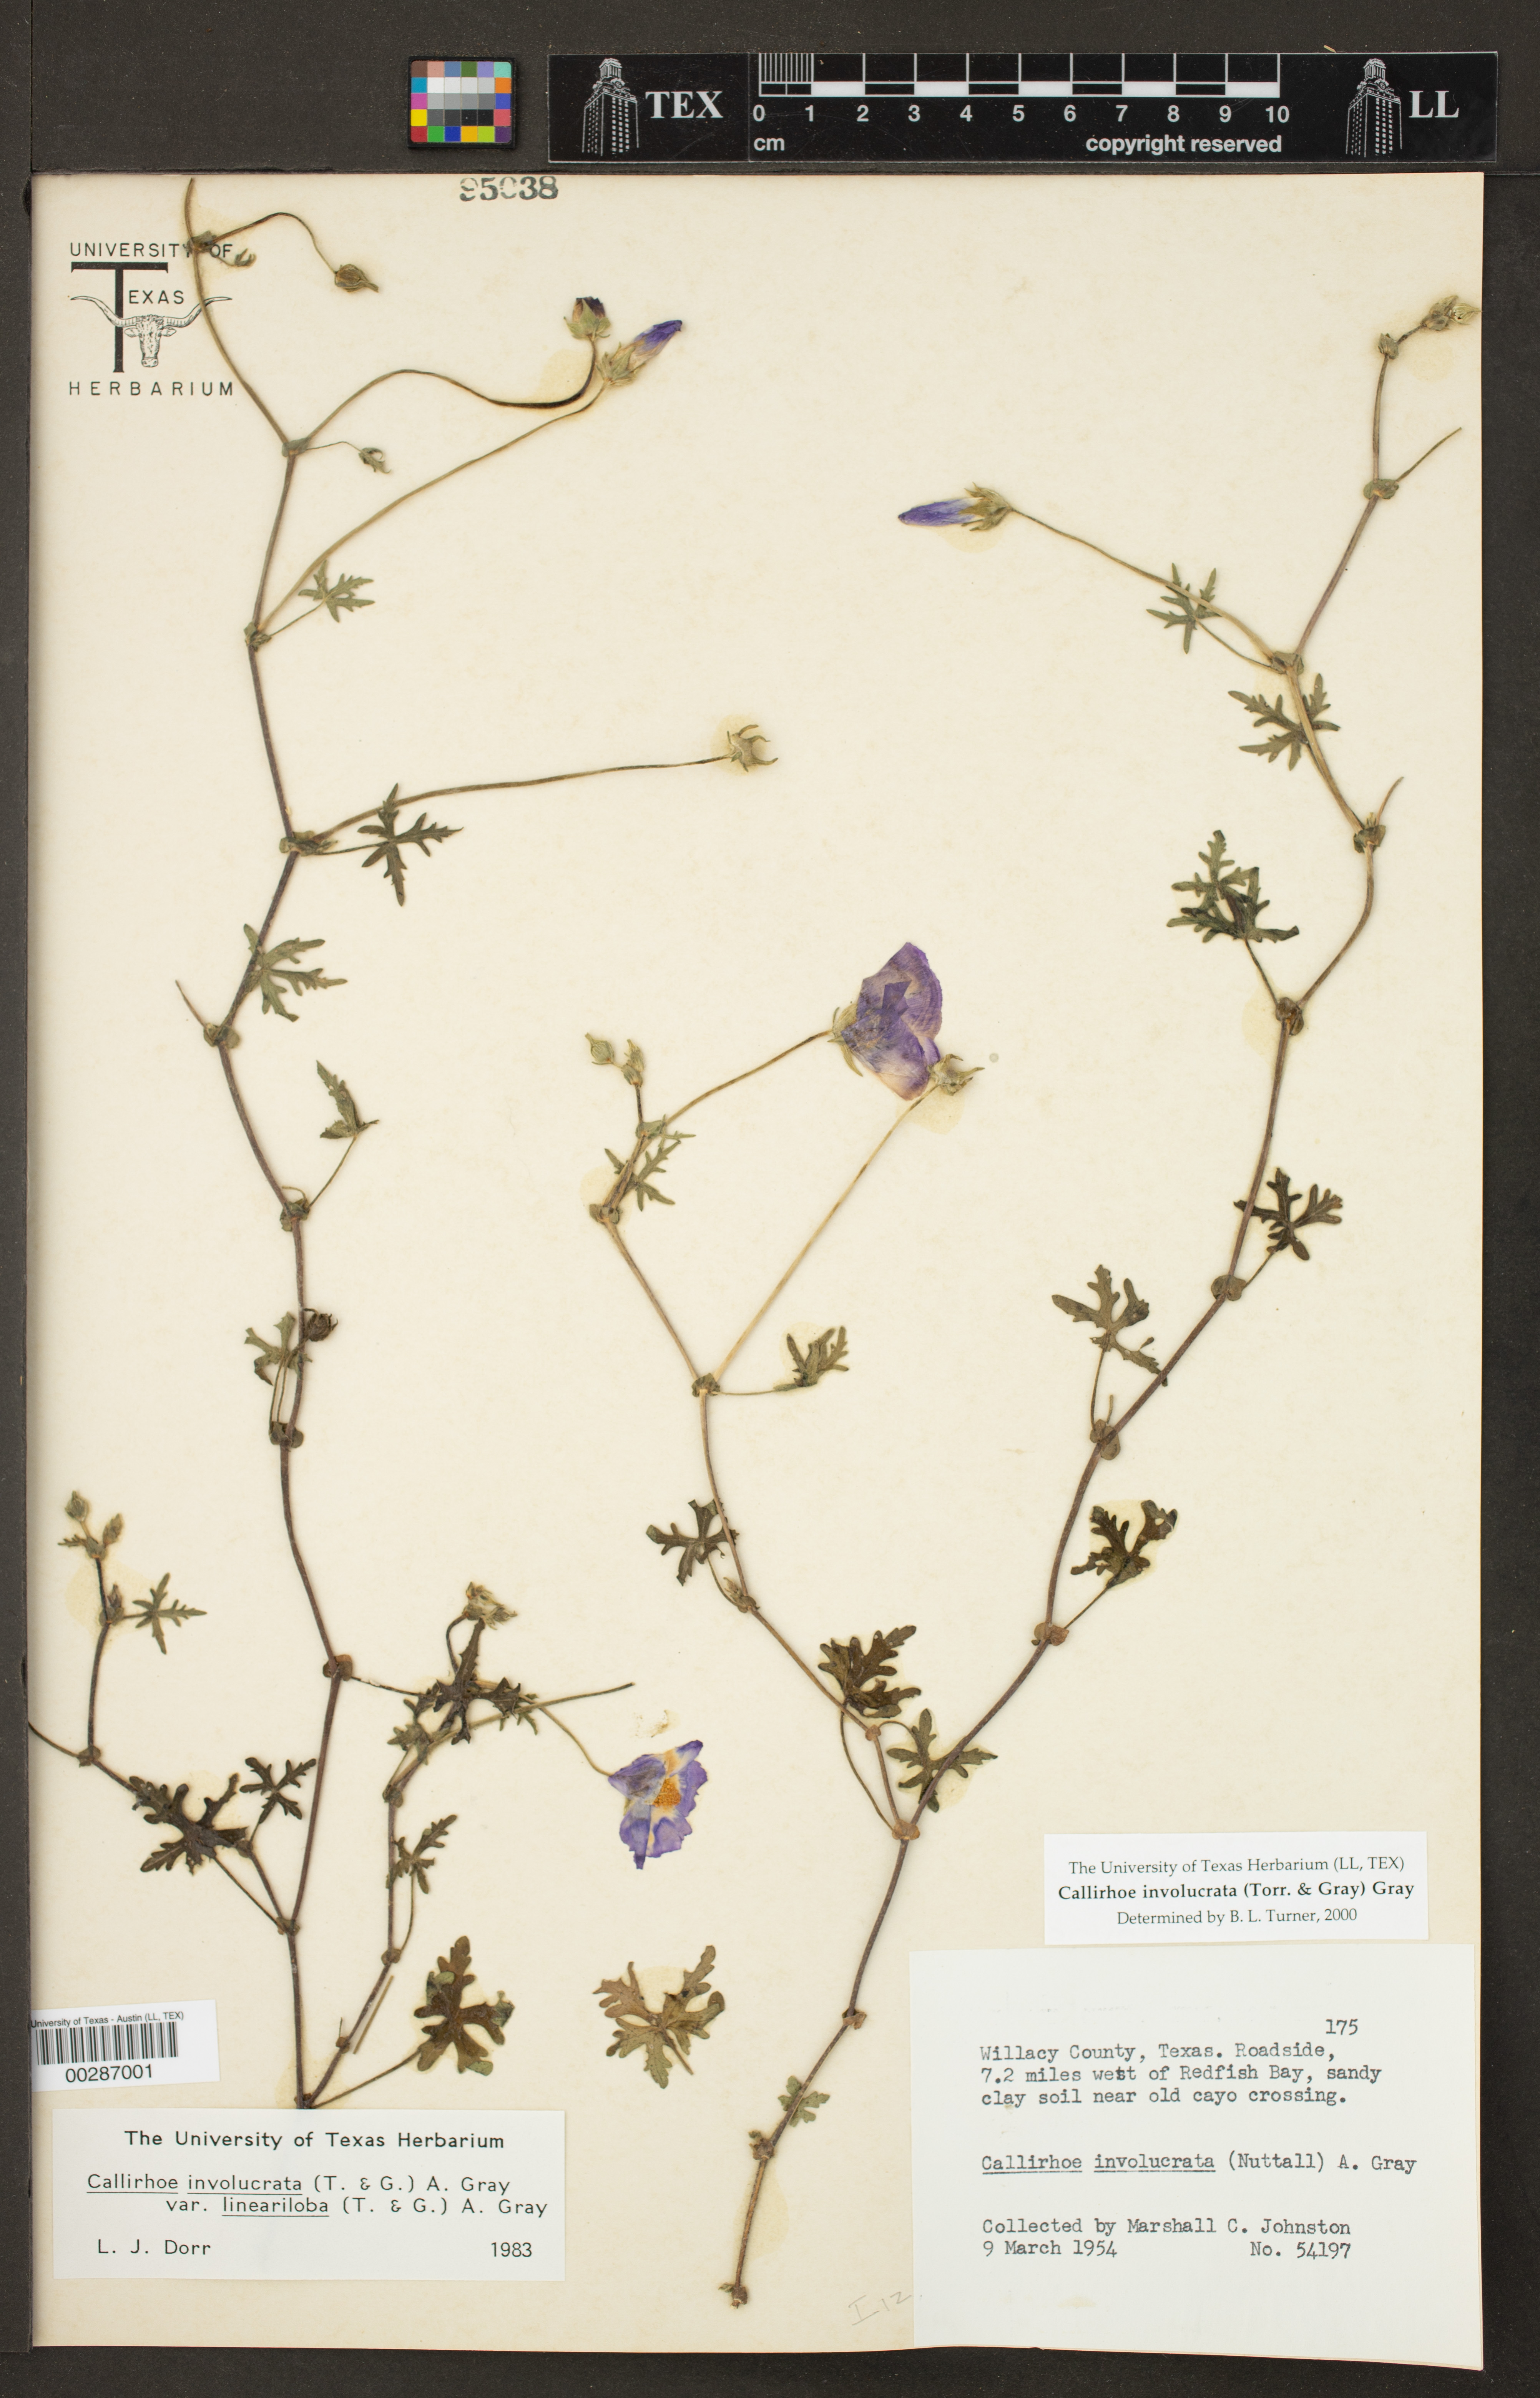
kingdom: Plantae
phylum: Tracheophyta
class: Magnoliopsida
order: Malvales
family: Malvaceae
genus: Callirhoe
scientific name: Callirhoe involucrata
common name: Purple poppy-mallow
